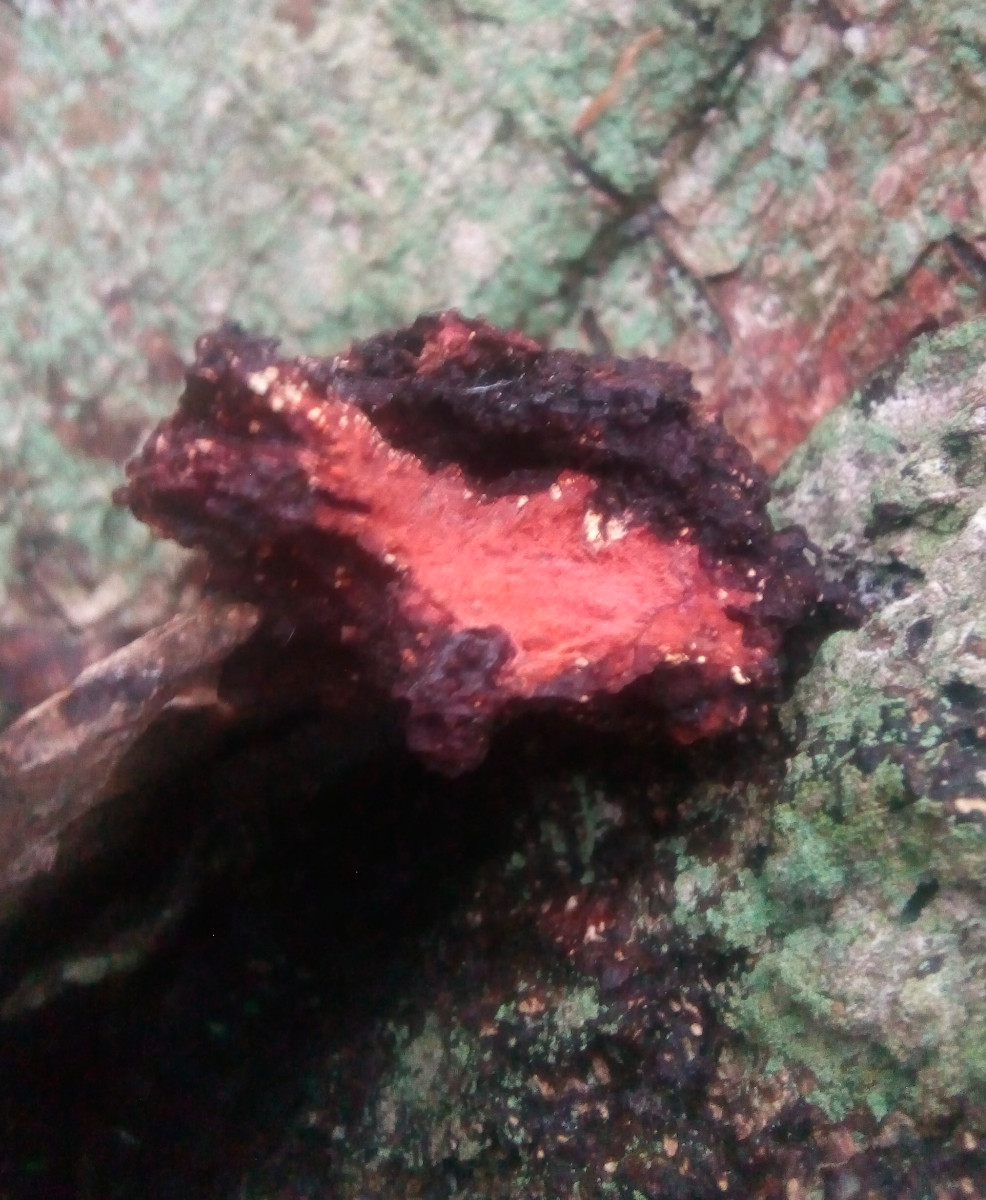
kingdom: Fungi
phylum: Basidiomycota
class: Agaricomycetes
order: Hymenochaetales
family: Hymenochaetaceae
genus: Inonotus
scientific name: Inonotus obliquus
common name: birke-spejlporesvamp
